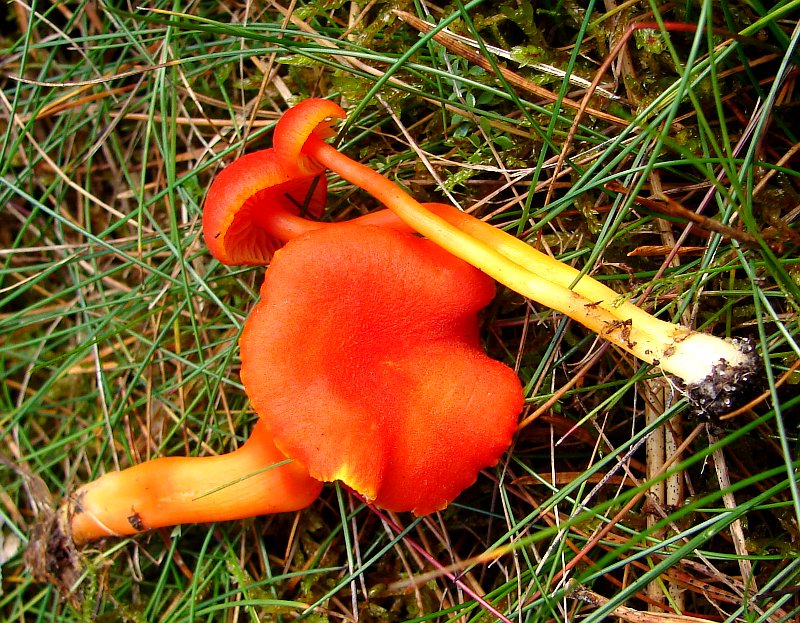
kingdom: Fungi
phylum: Basidiomycota
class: Agaricomycetes
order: Agaricales
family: Hygrophoraceae
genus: Hygrocybe
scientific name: Hygrocybe miniata
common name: mønje-vokshat
